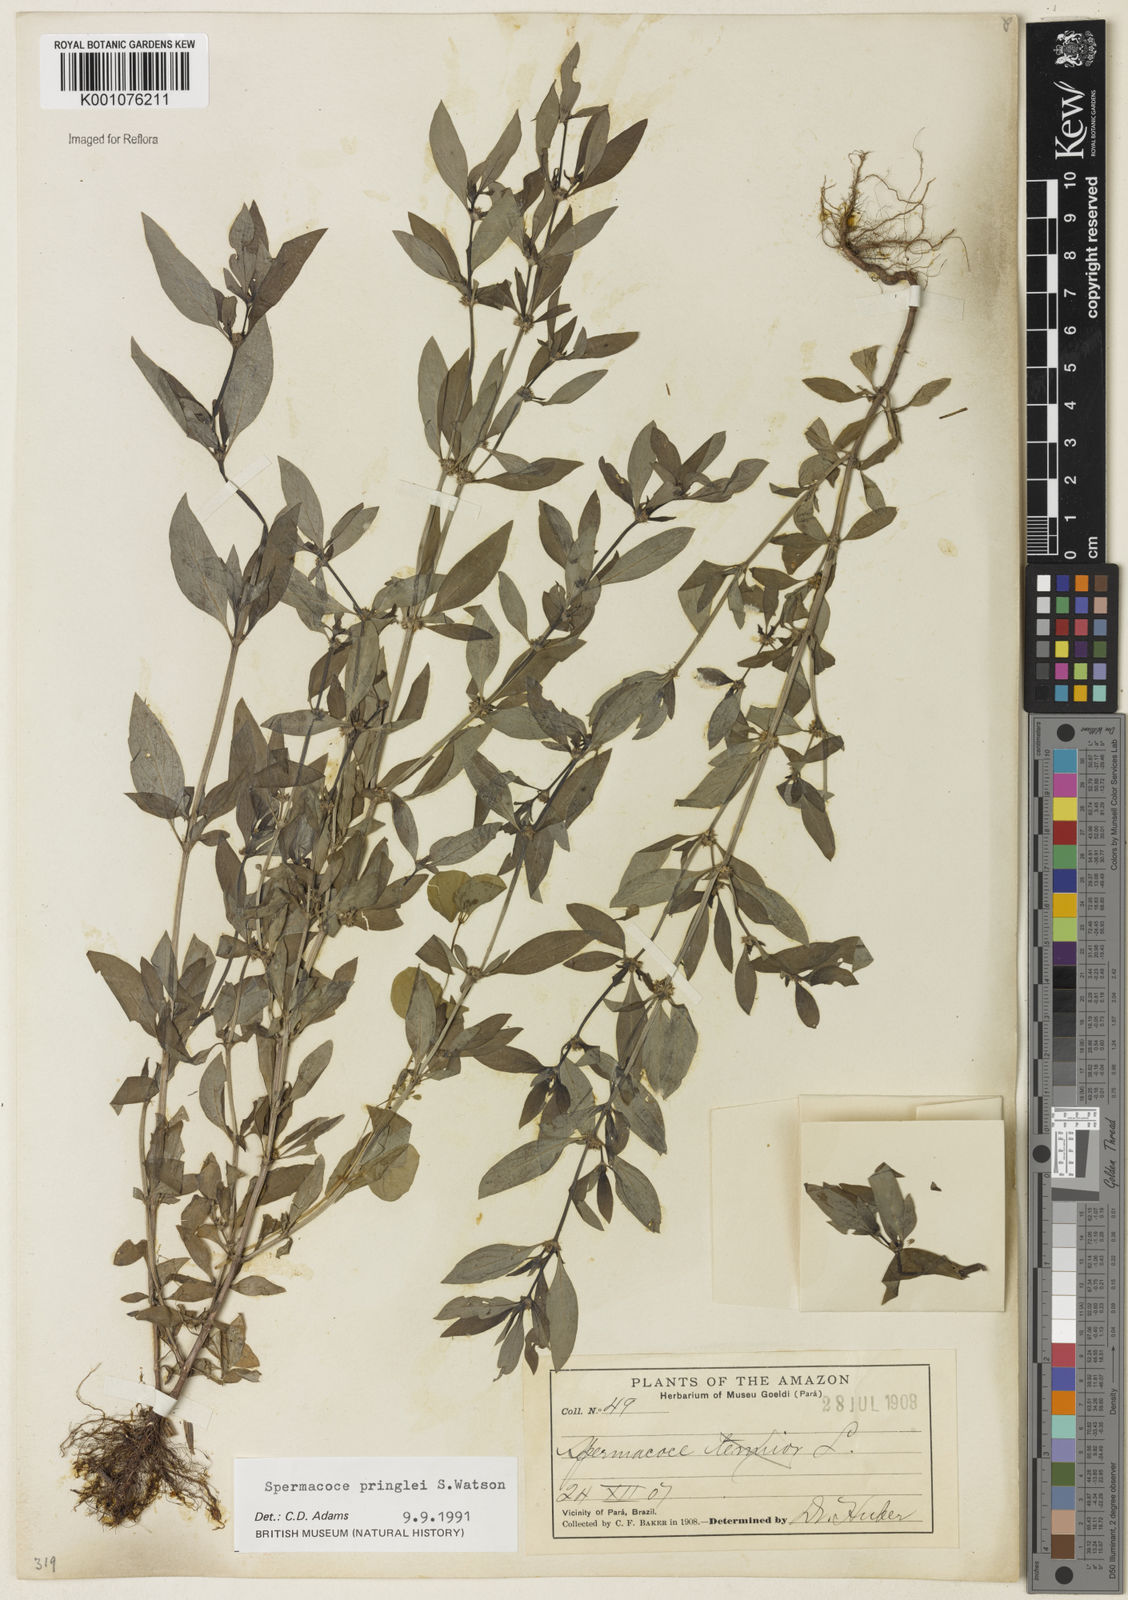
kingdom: Plantae
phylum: Tracheophyta
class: Magnoliopsida
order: Gentianales
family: Rubiaceae
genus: Spermacoce
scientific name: Spermacoce ovalifolia
